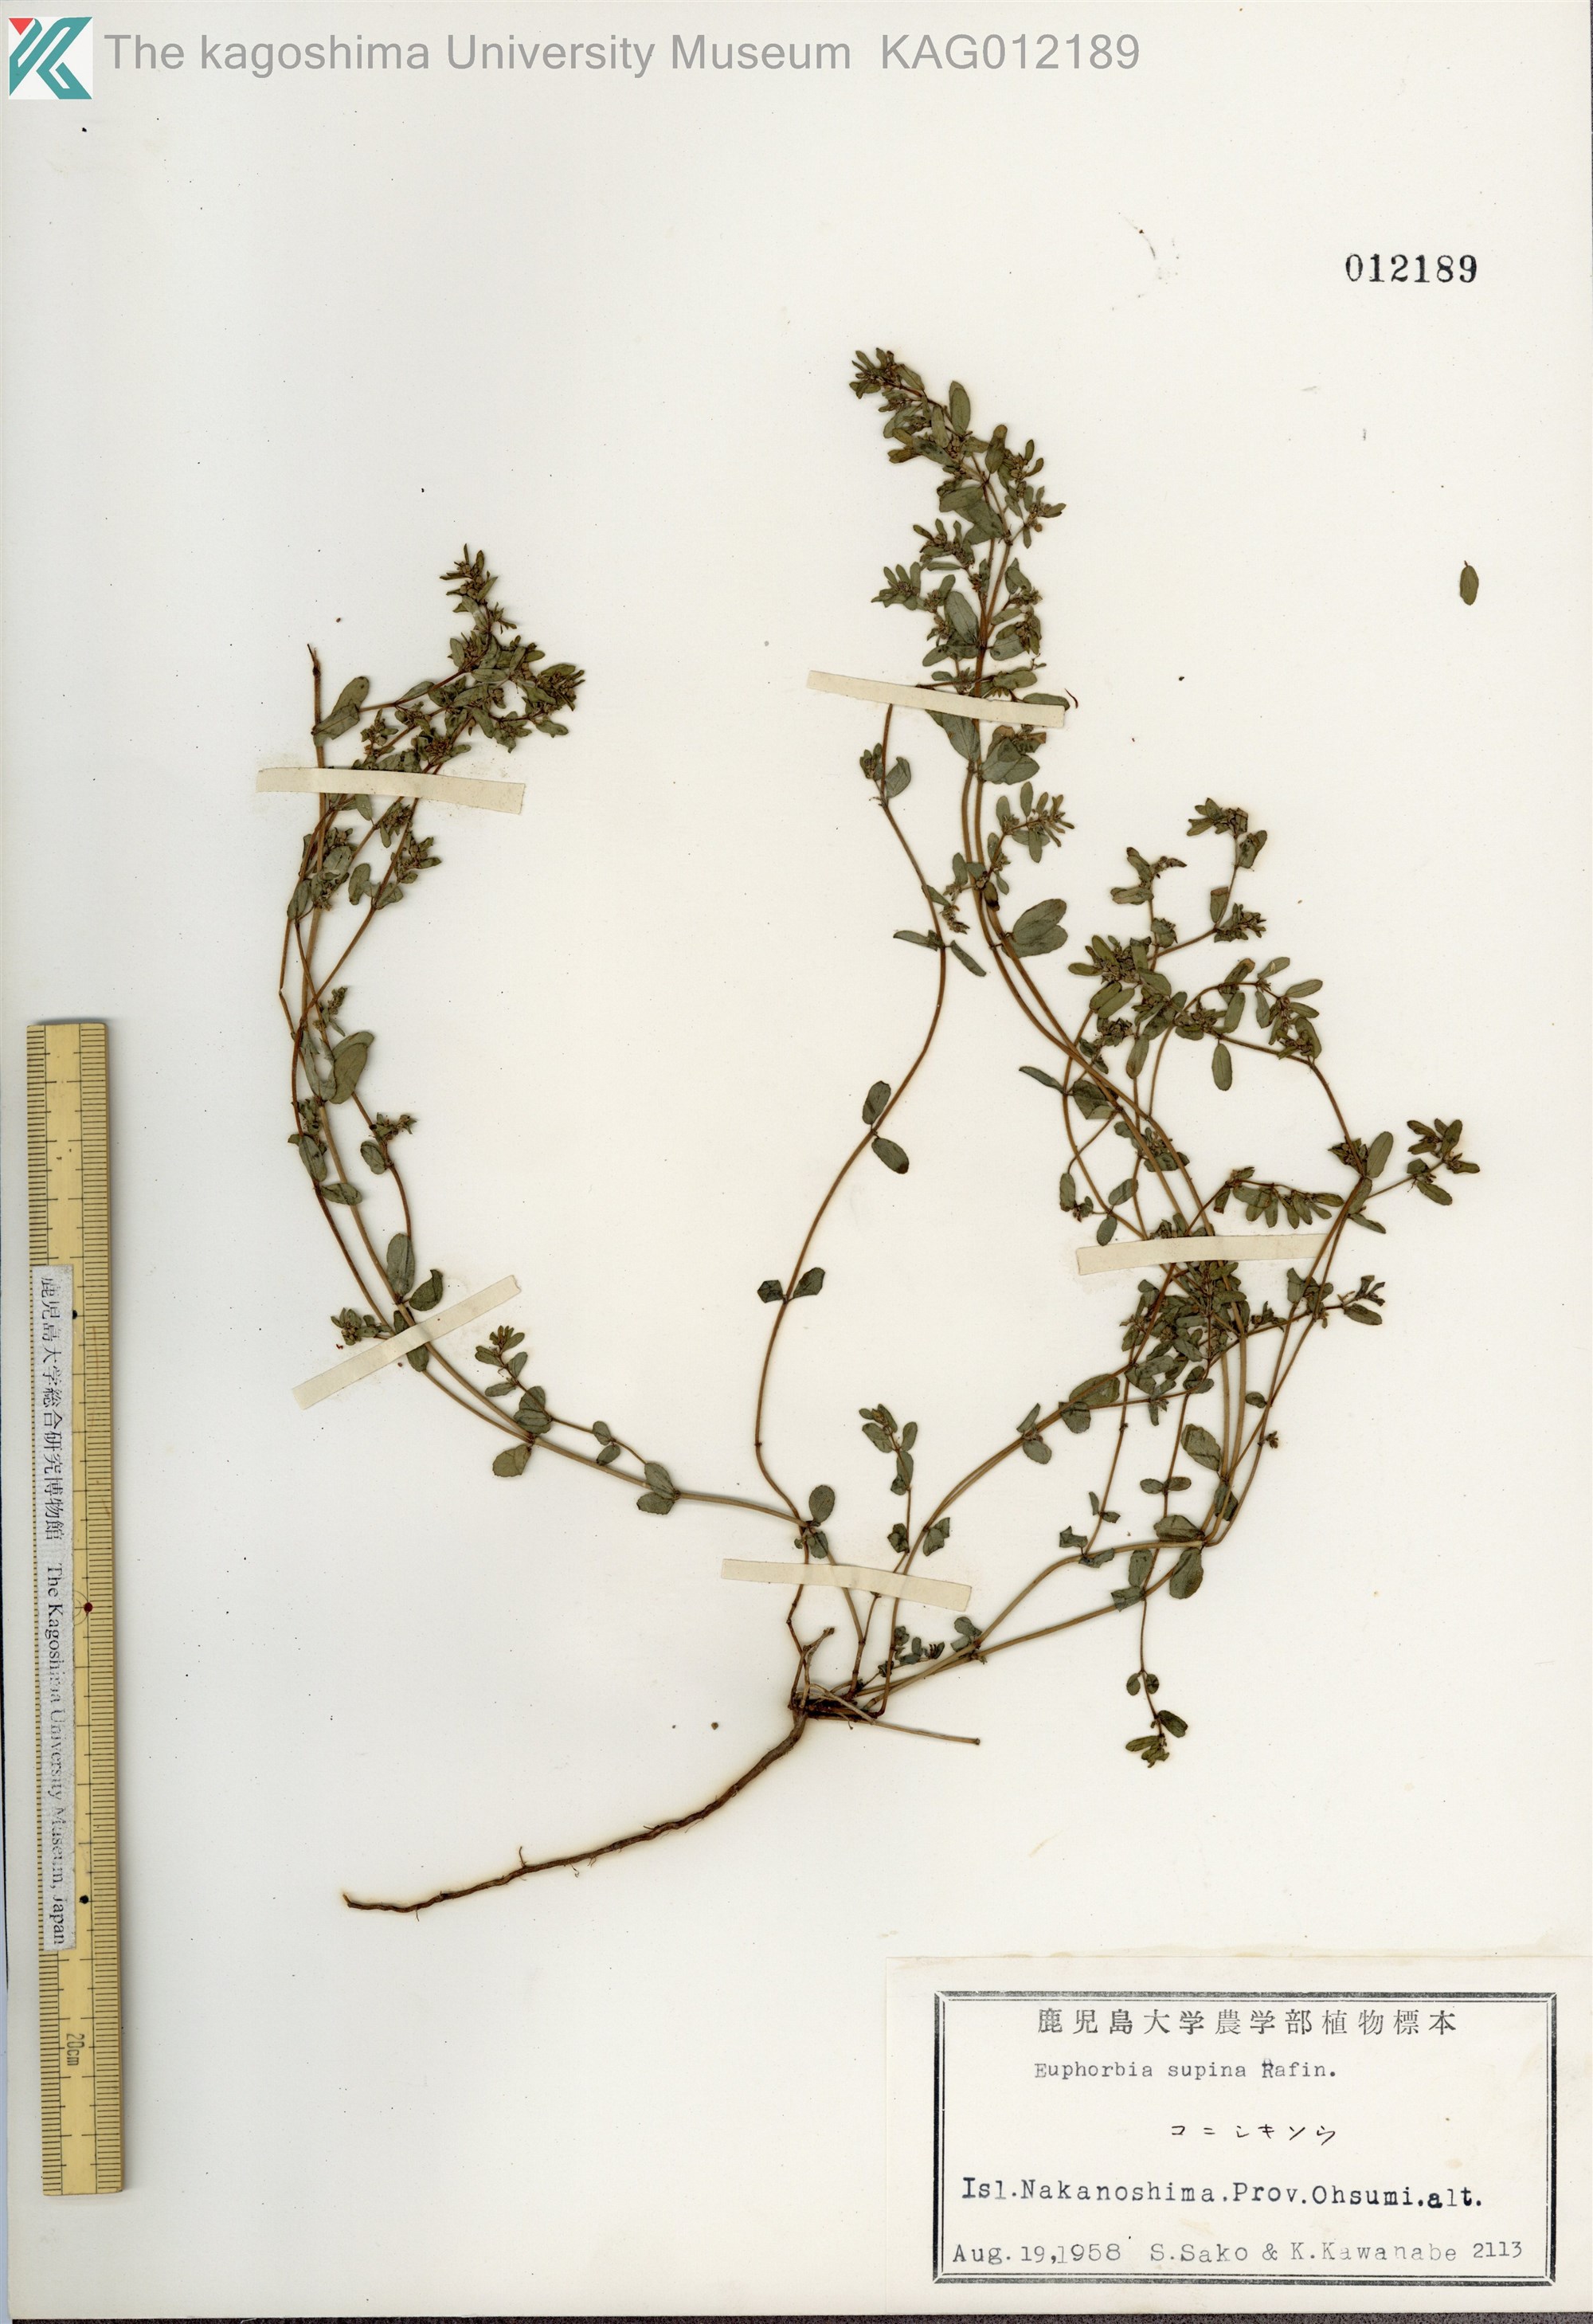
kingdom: Plantae
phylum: Tracheophyta
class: Magnoliopsida
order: Malpighiales
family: Euphorbiaceae
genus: Euphorbia
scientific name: Euphorbia maculata
